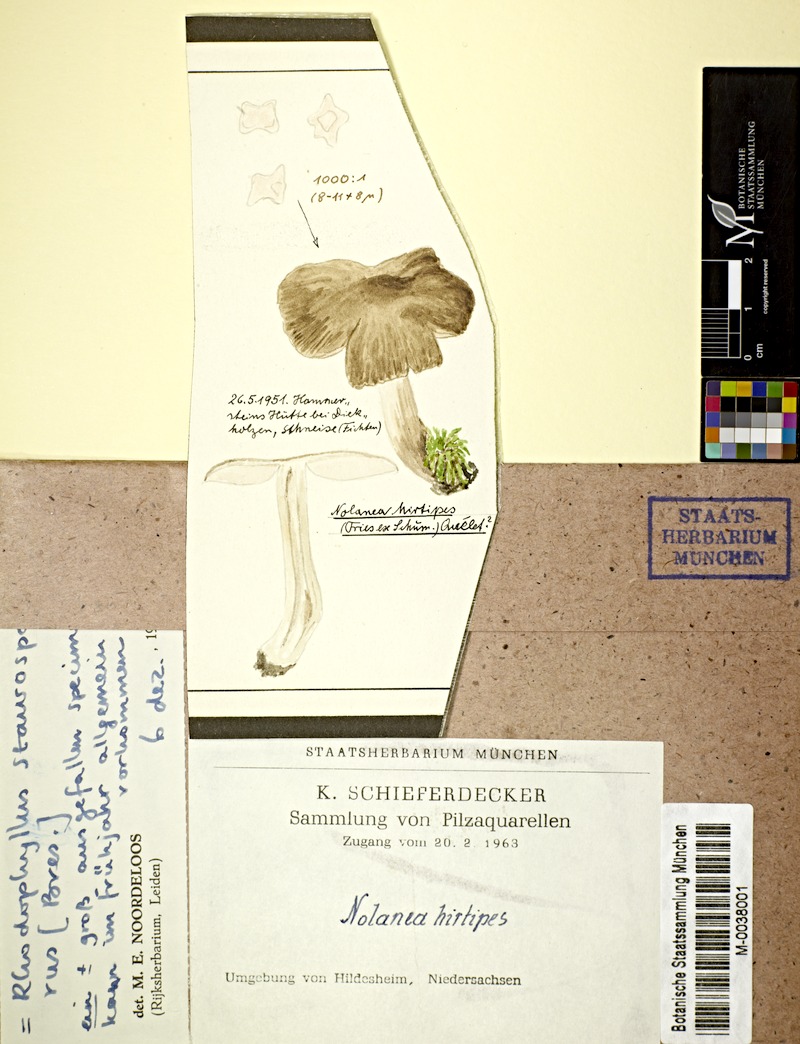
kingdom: Fungi
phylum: Basidiomycota
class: Agaricomycetes
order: Agaricales
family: Entolomataceae
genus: Entoloma
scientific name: Entoloma hirtipes
